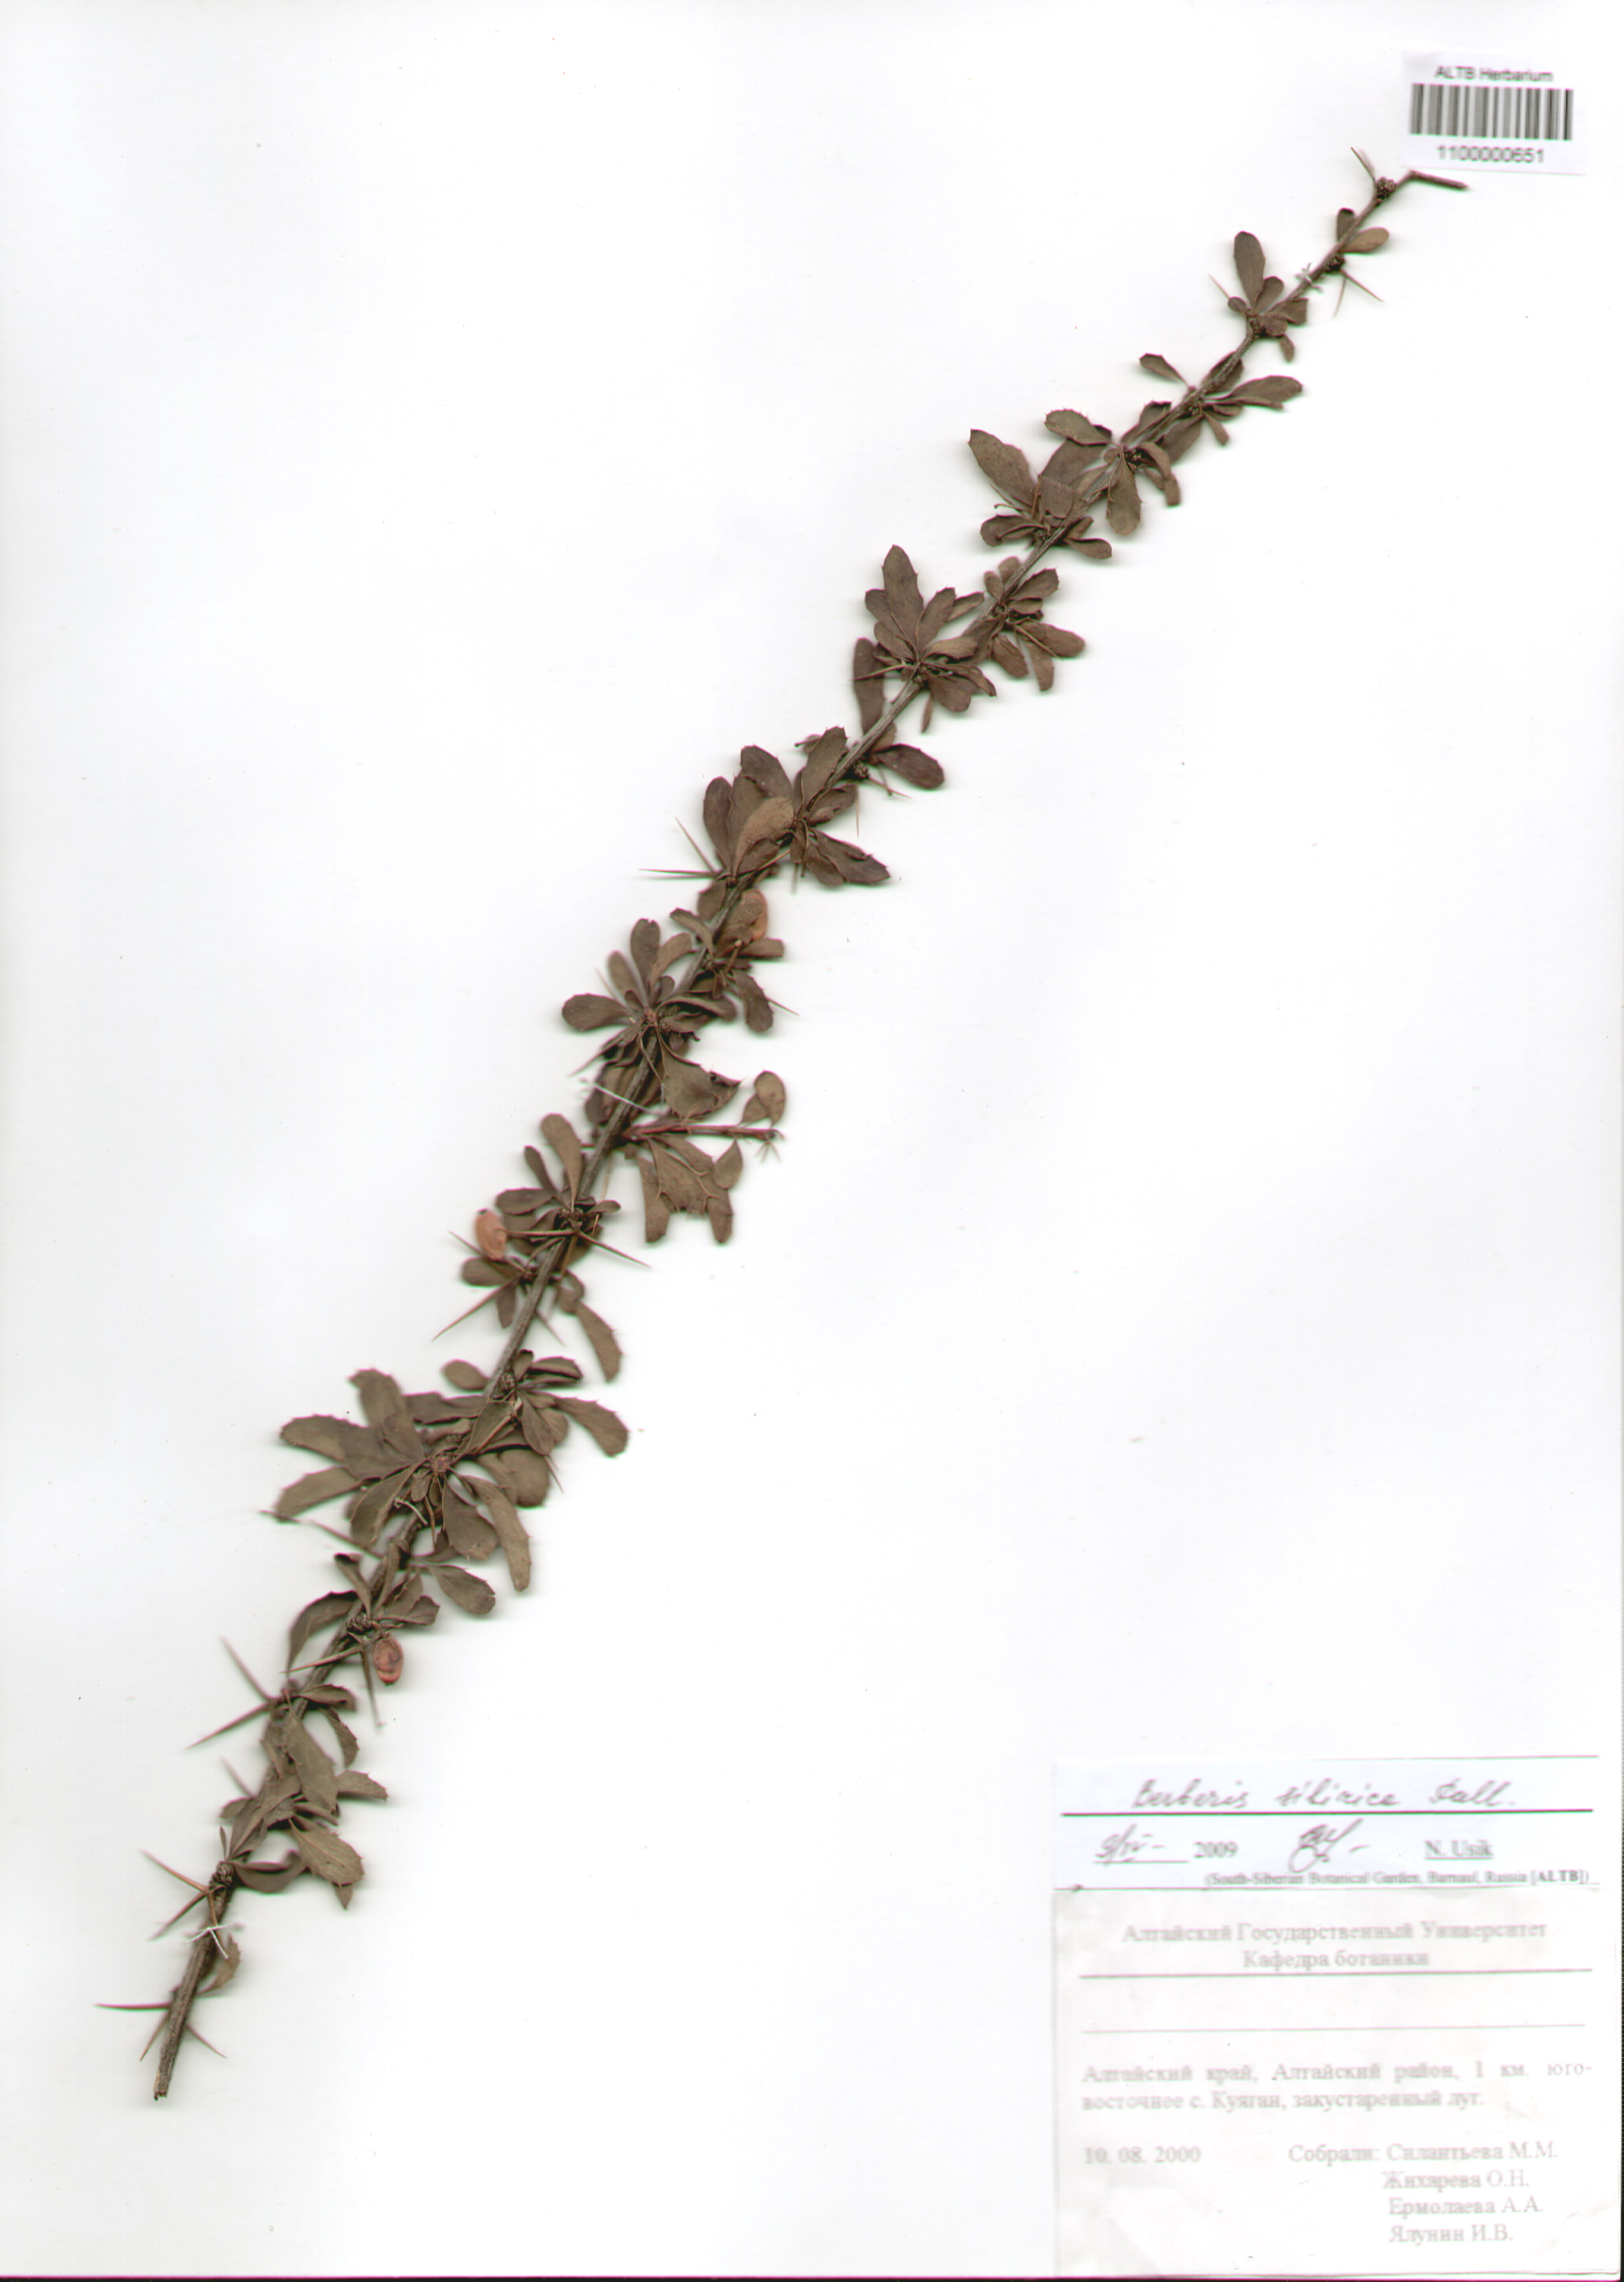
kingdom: Plantae
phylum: Tracheophyta
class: Magnoliopsida
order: Ranunculales
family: Berberidaceae
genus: Berberis
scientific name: Berberis sibirica
